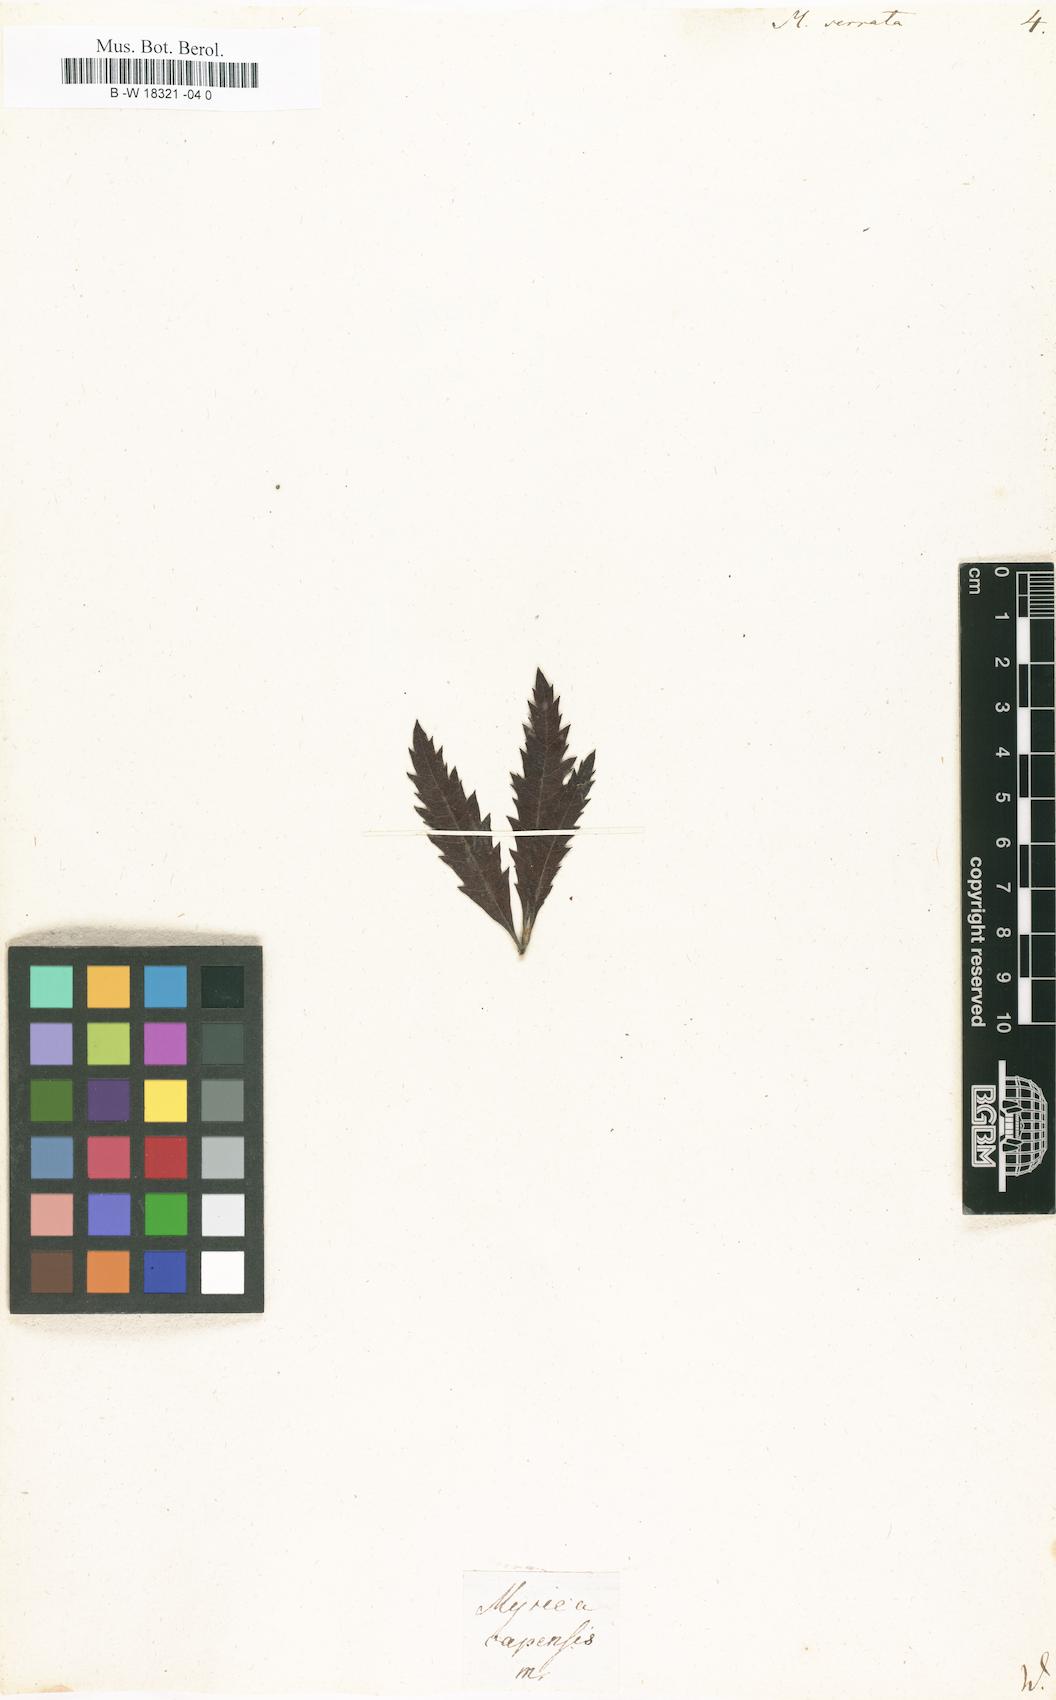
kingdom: Plantae
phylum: Tracheophyta
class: Magnoliopsida
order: Fagales
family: Myricaceae
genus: Morella
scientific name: Morella serrata
